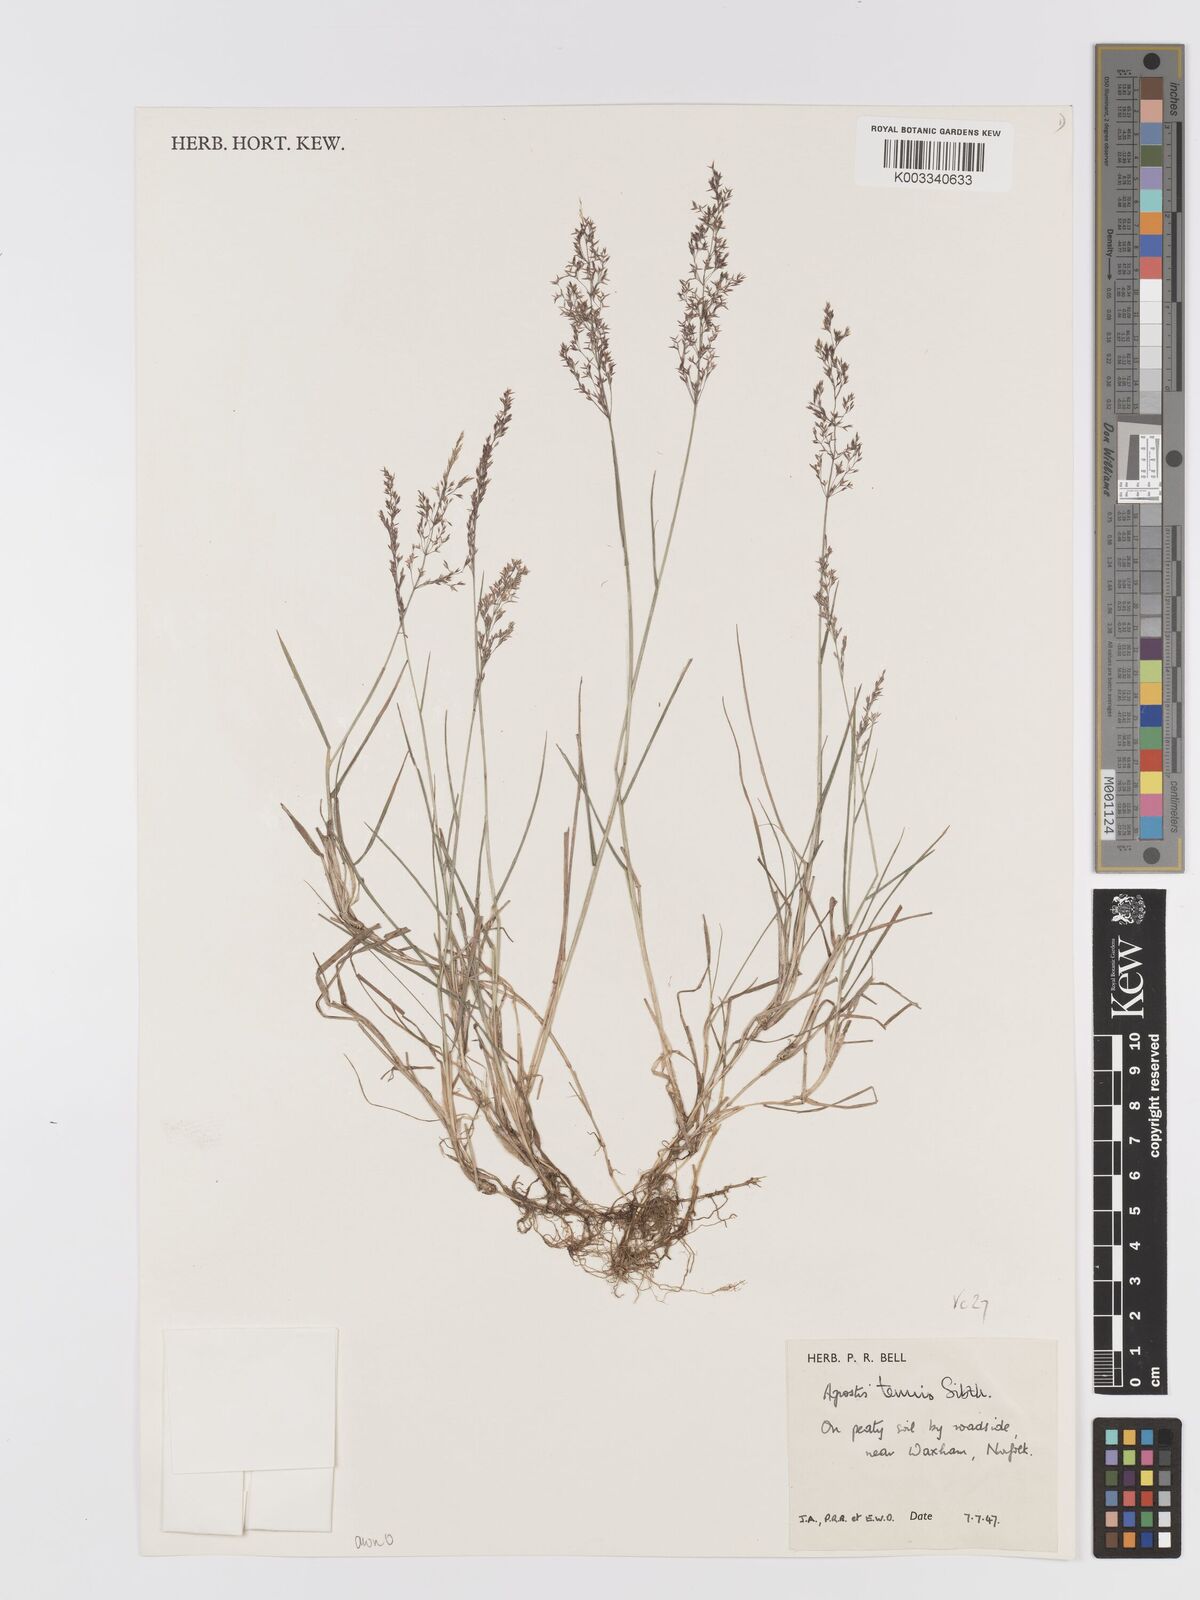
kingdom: Plantae
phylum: Tracheophyta
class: Liliopsida
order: Poales
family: Poaceae
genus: Agrostis
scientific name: Agrostis capillaris
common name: Colonial bentgrass
